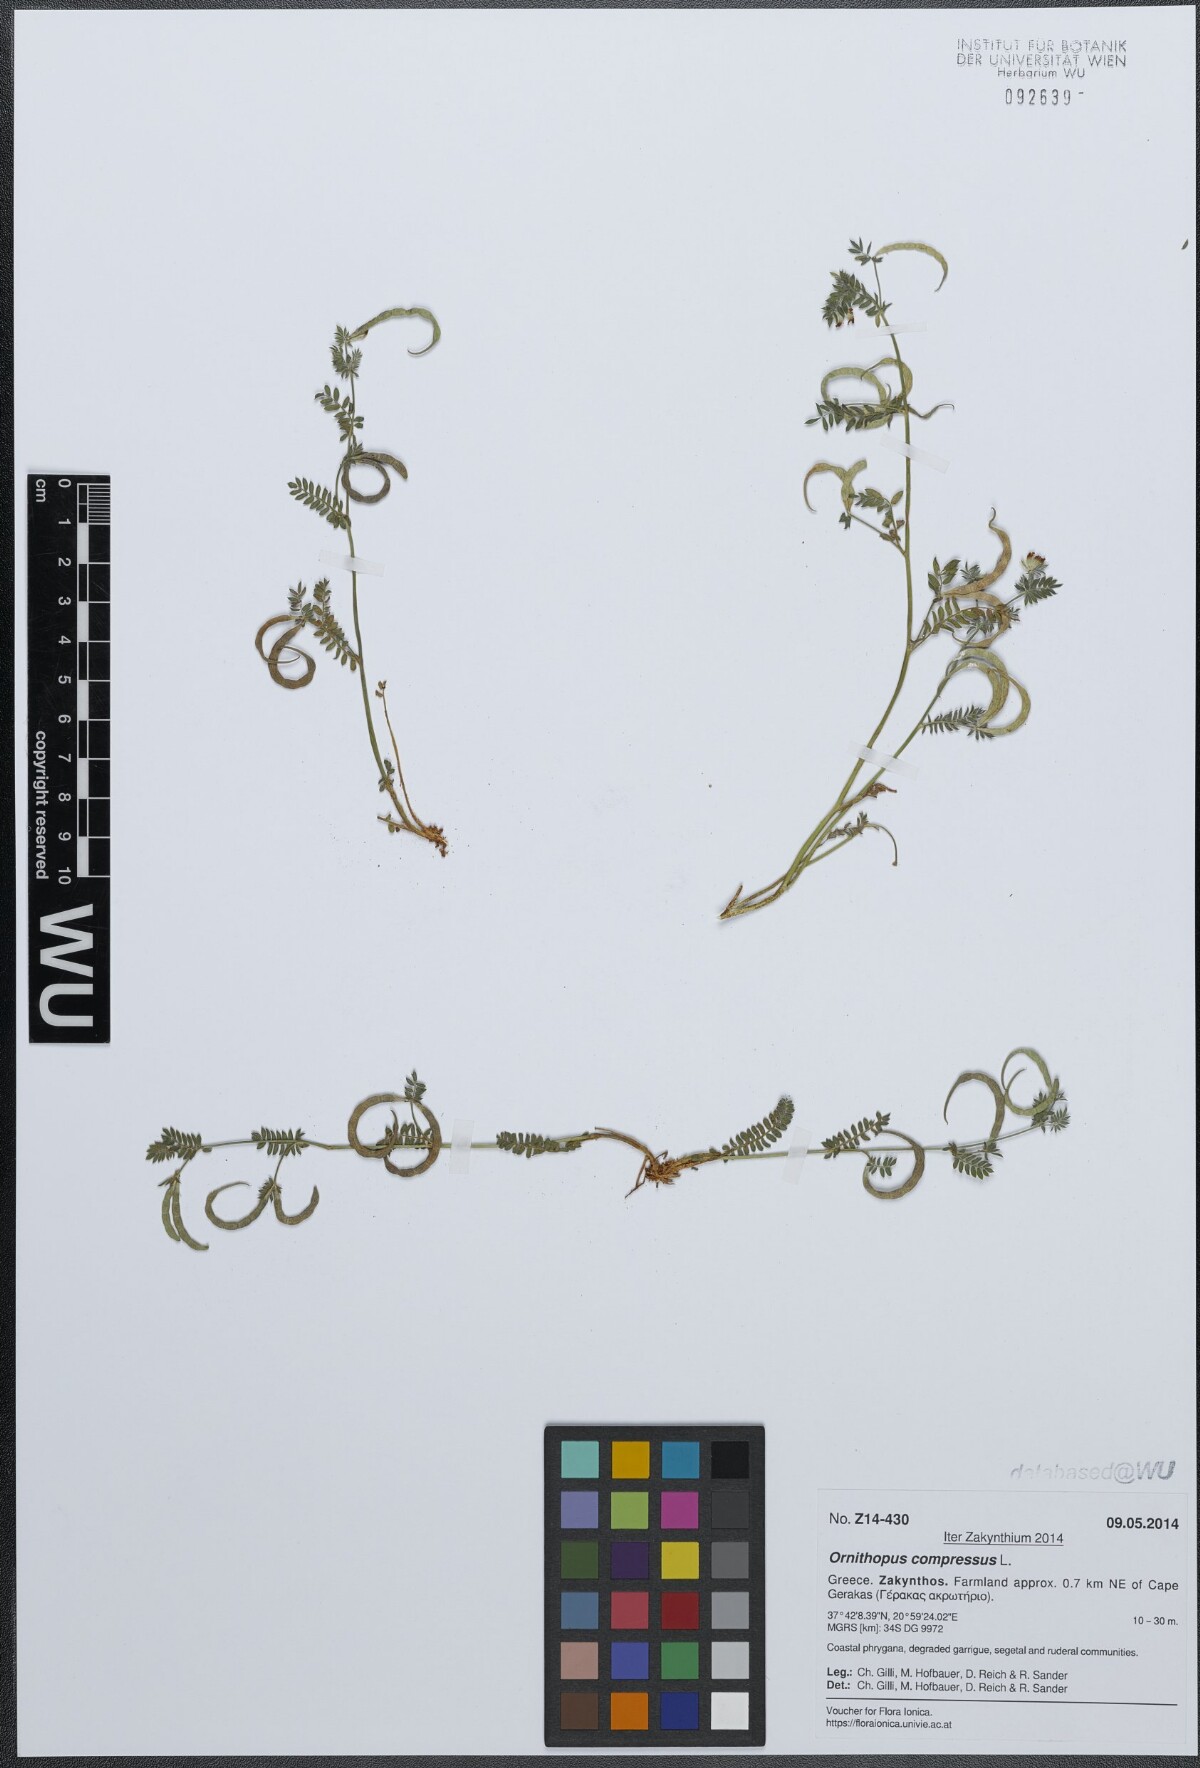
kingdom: Plantae
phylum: Tracheophyta
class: Magnoliopsida
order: Fabales
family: Fabaceae
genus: Ornithopus
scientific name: Ornithopus compressus
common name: Yellow serradella
